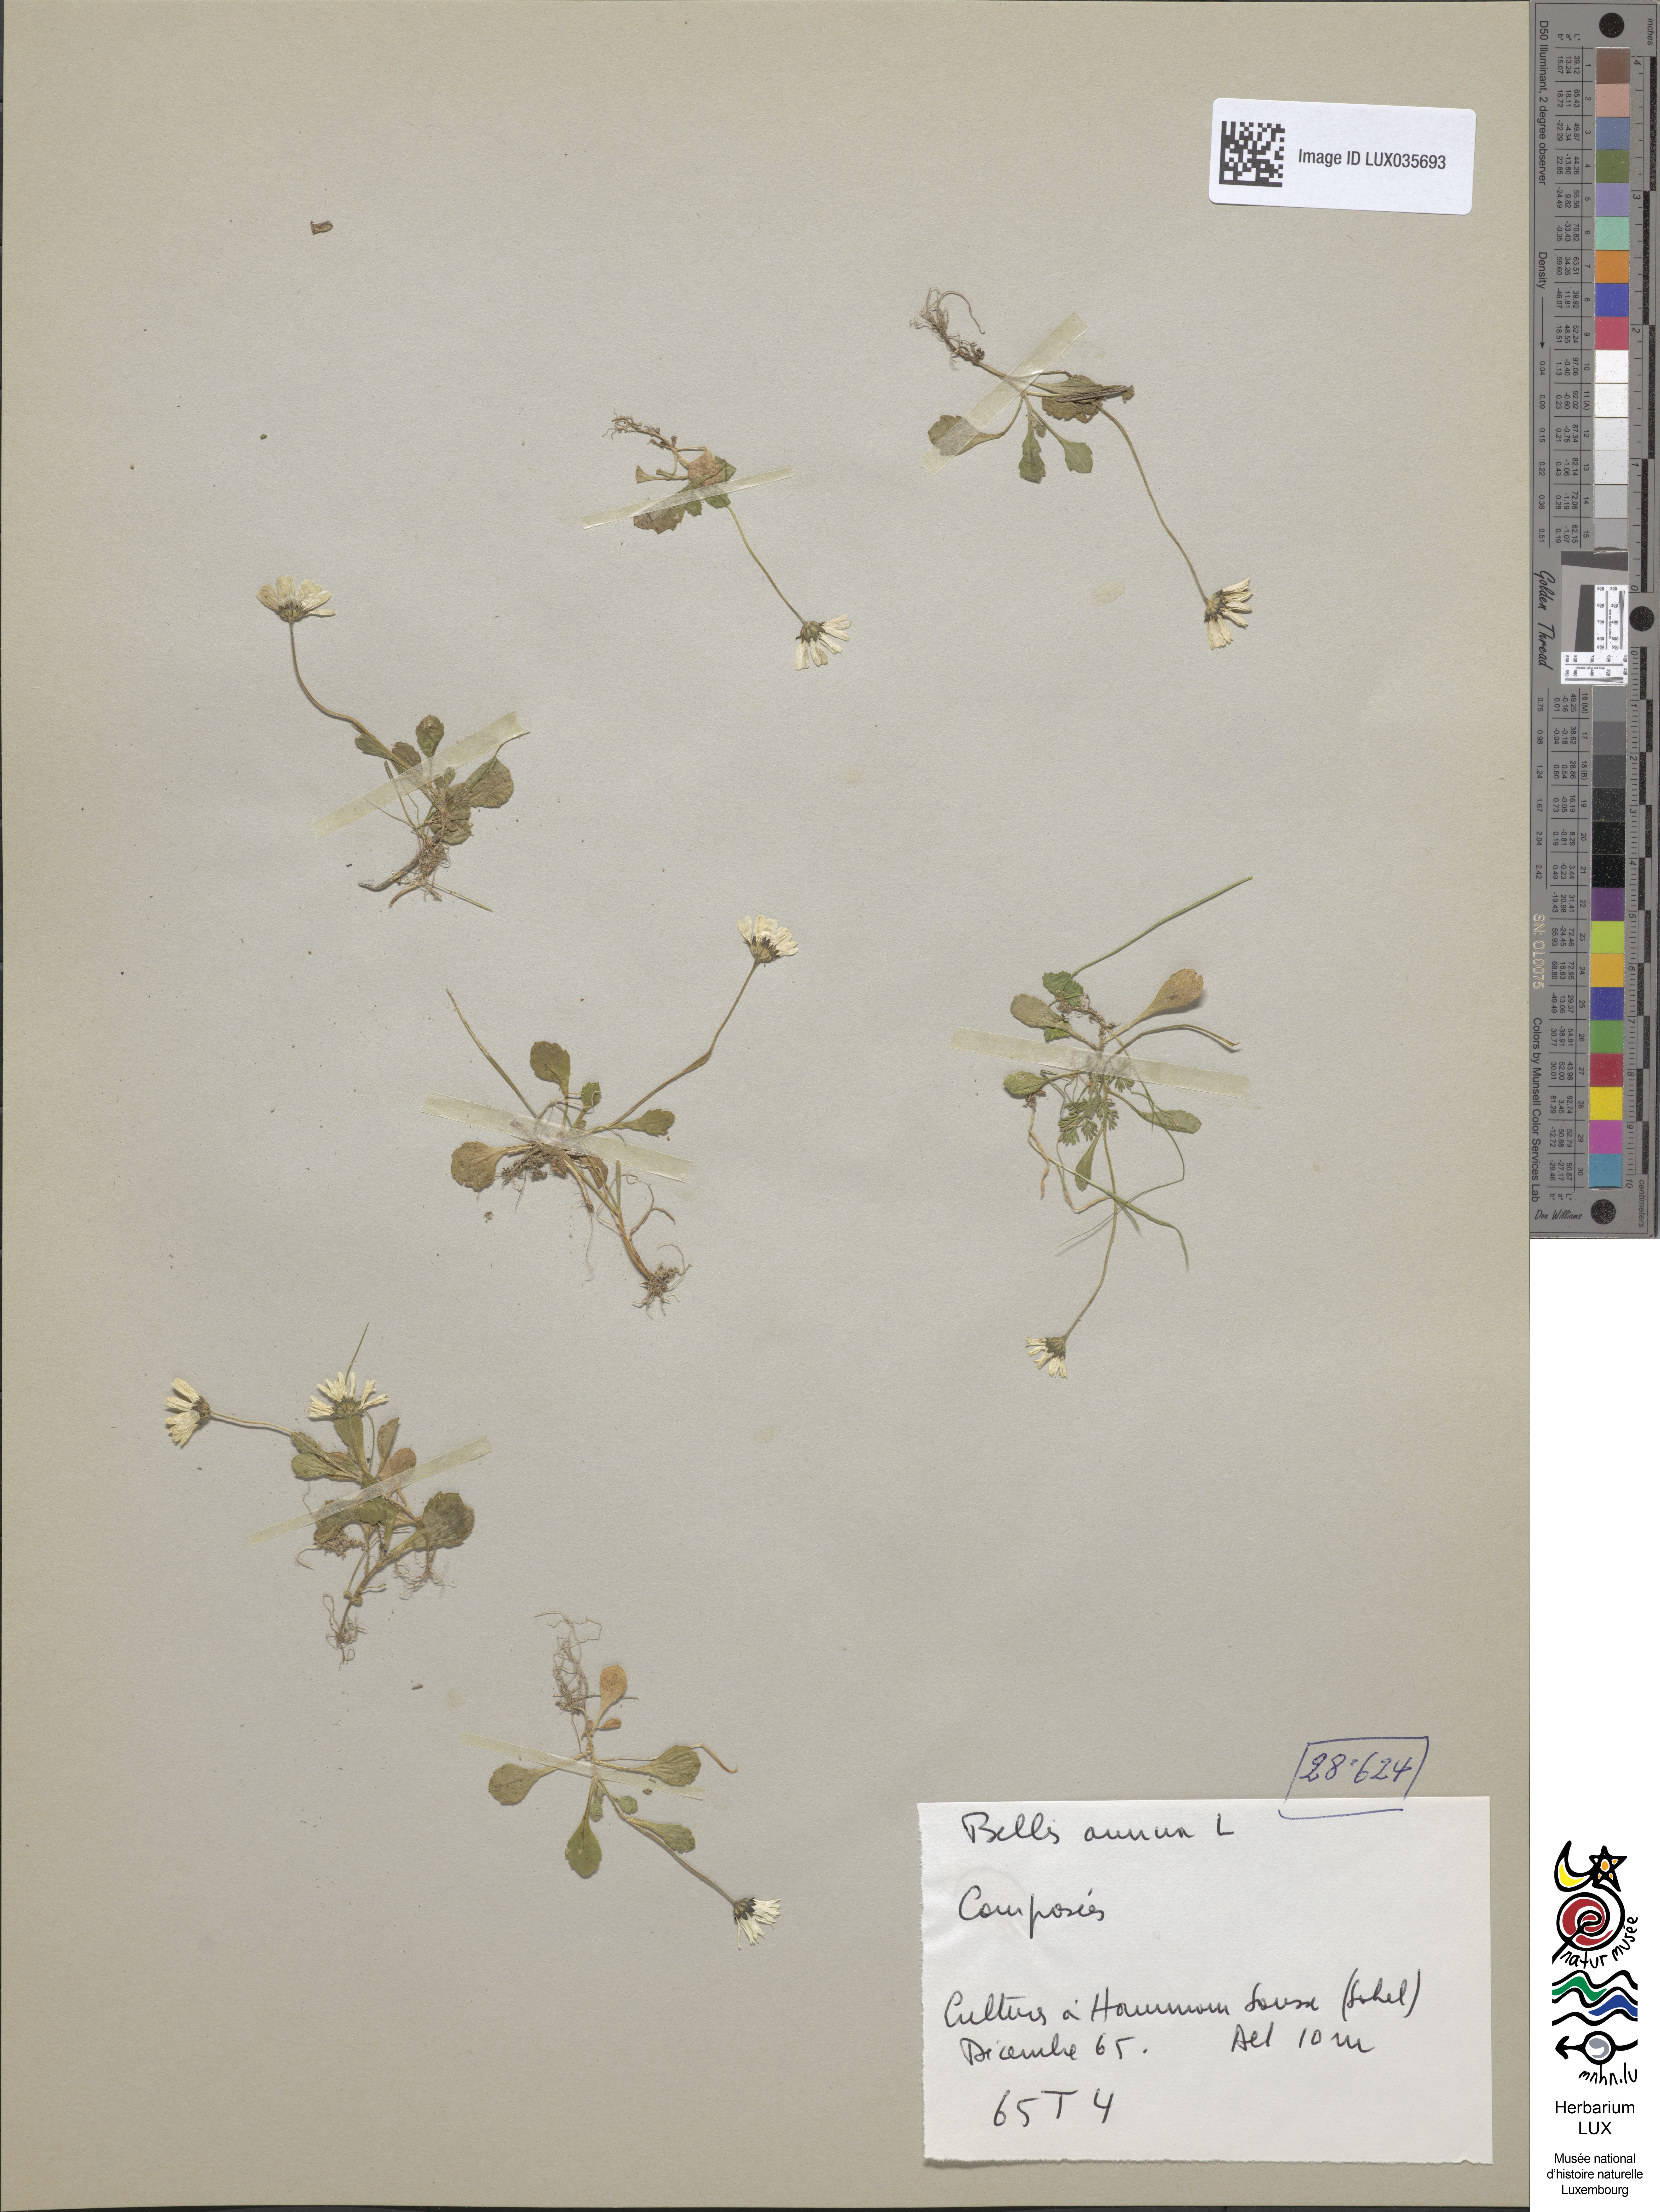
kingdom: Plantae
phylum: Tracheophyta
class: Magnoliopsida
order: Asterales
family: Asteraceae
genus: Bellis
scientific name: Bellis annua
